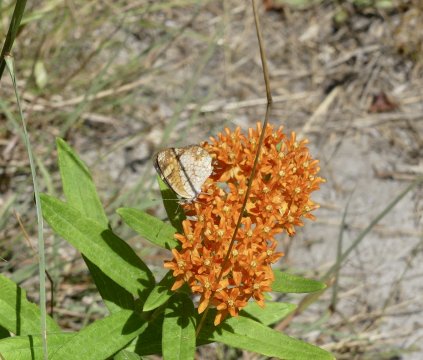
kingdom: Animalia
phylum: Arthropoda
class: Insecta
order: Lepidoptera
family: Nymphalidae
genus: Phyciodes
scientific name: Phyciodes tharos
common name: Pearl Crescent
